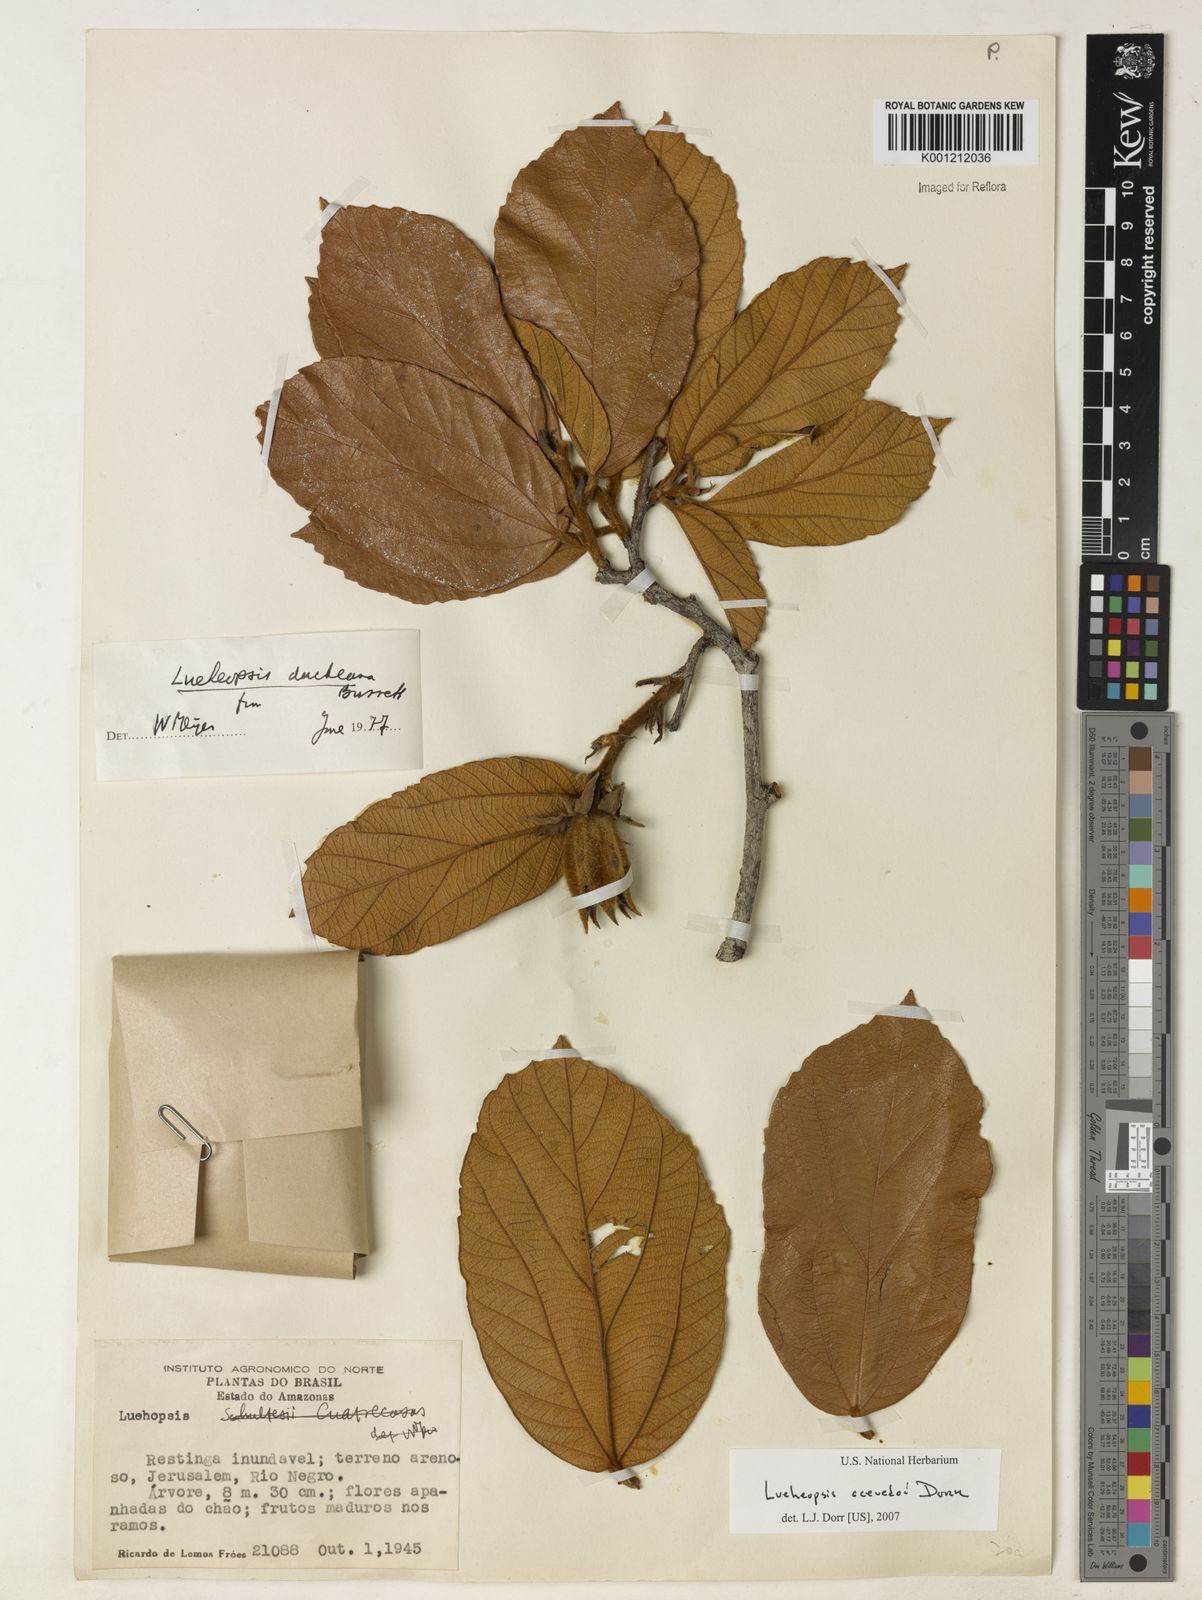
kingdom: Plantae
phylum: Tracheophyta
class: Magnoliopsida
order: Malvales
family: Malvaceae
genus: Lueheopsis
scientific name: Lueheopsis
